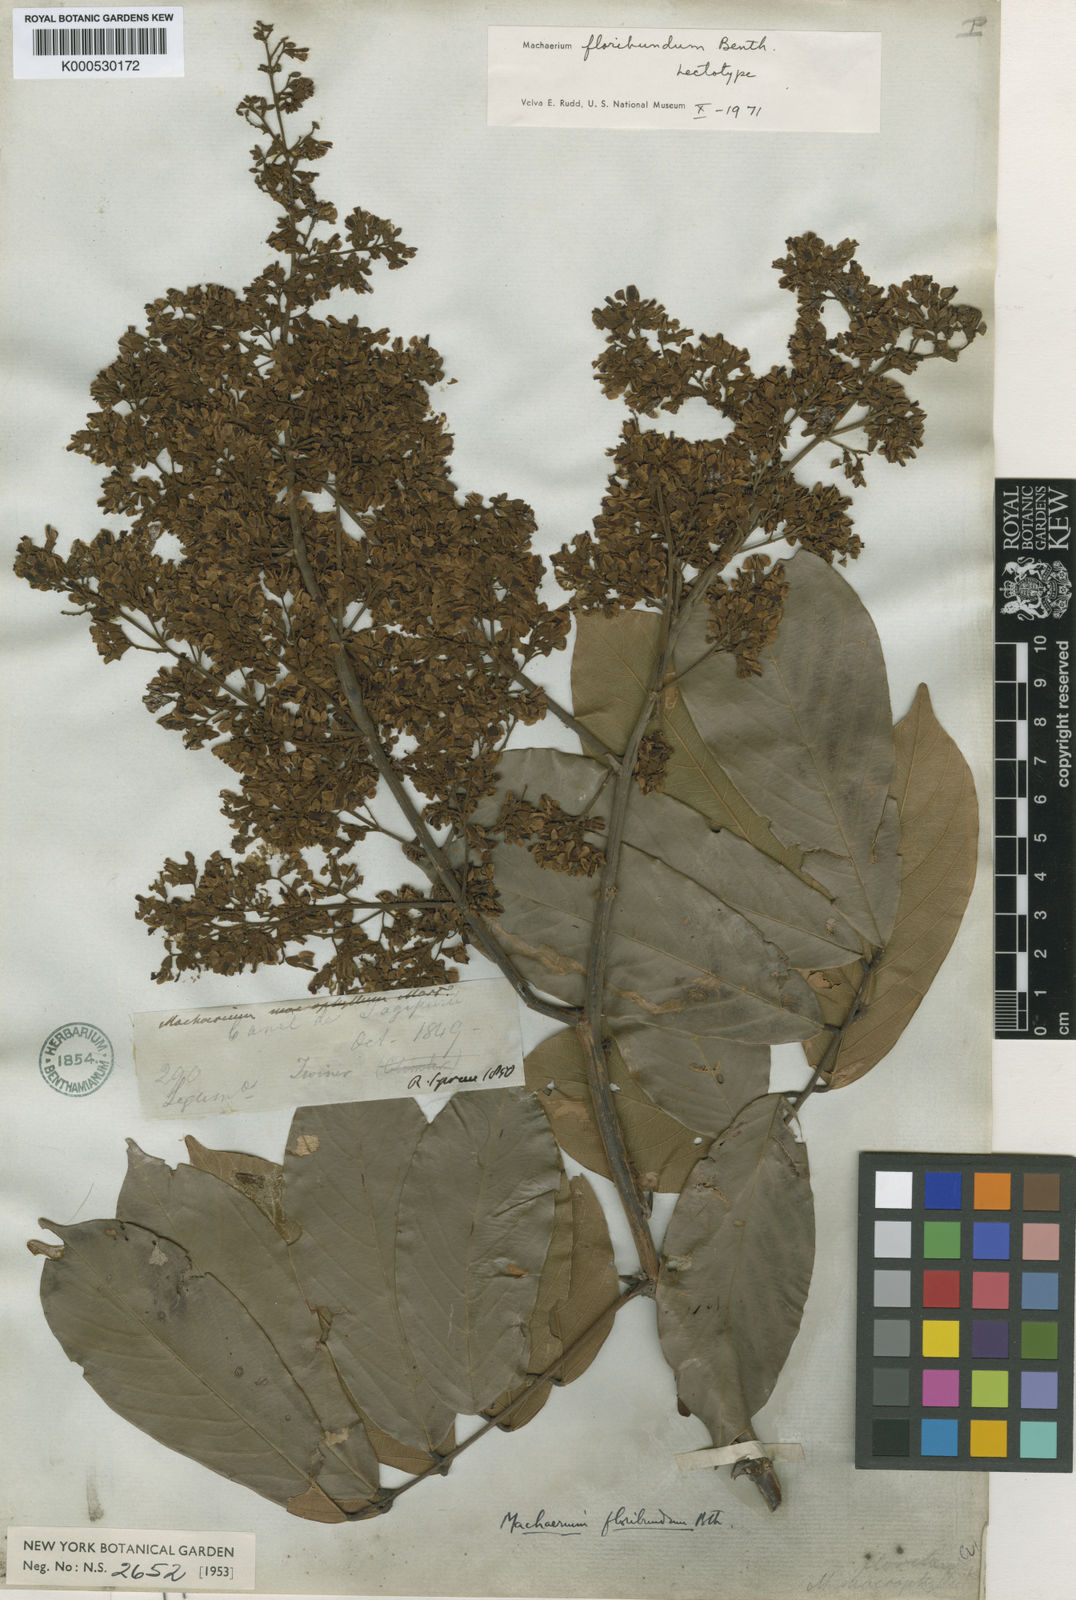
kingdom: Plantae
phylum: Tracheophyta
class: Magnoliopsida
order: Fabales
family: Fabaceae
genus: Machaerium
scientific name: Machaerium floribundum
